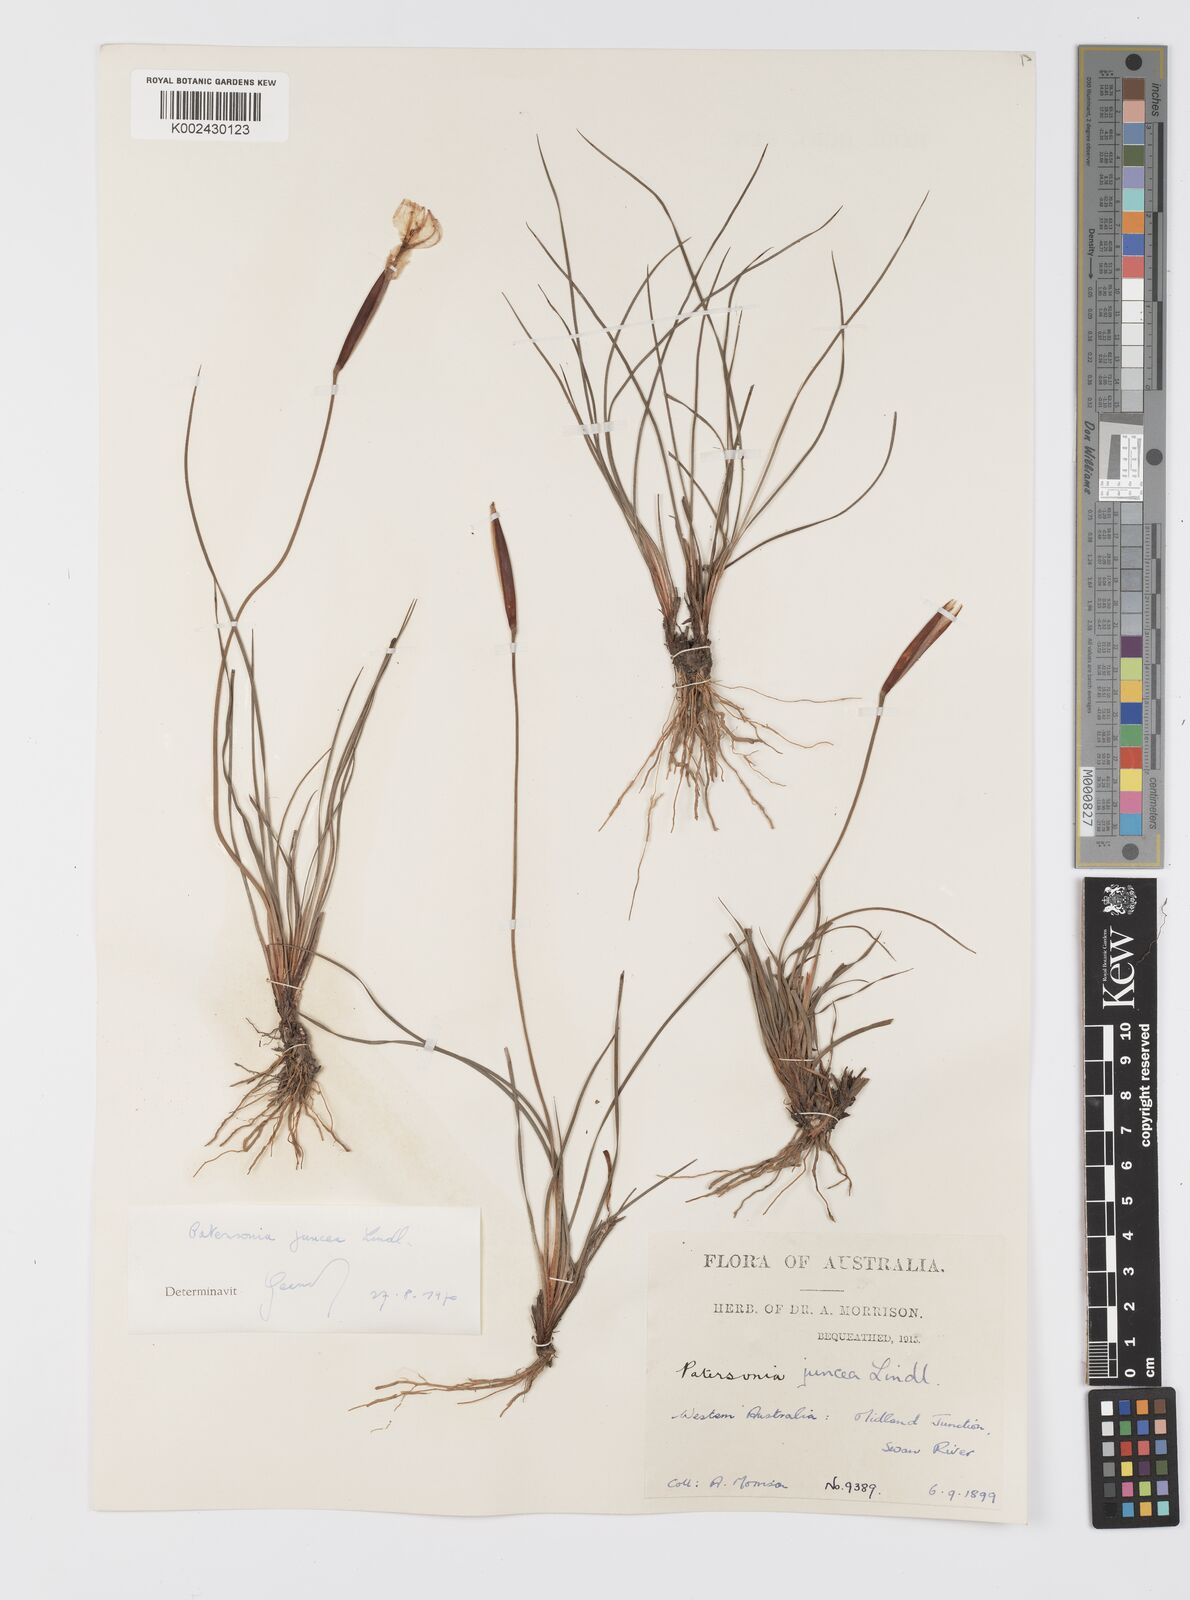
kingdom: Plantae
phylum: Tracheophyta
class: Liliopsida
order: Asparagales
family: Iridaceae
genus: Patersonia
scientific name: Patersonia juncea
